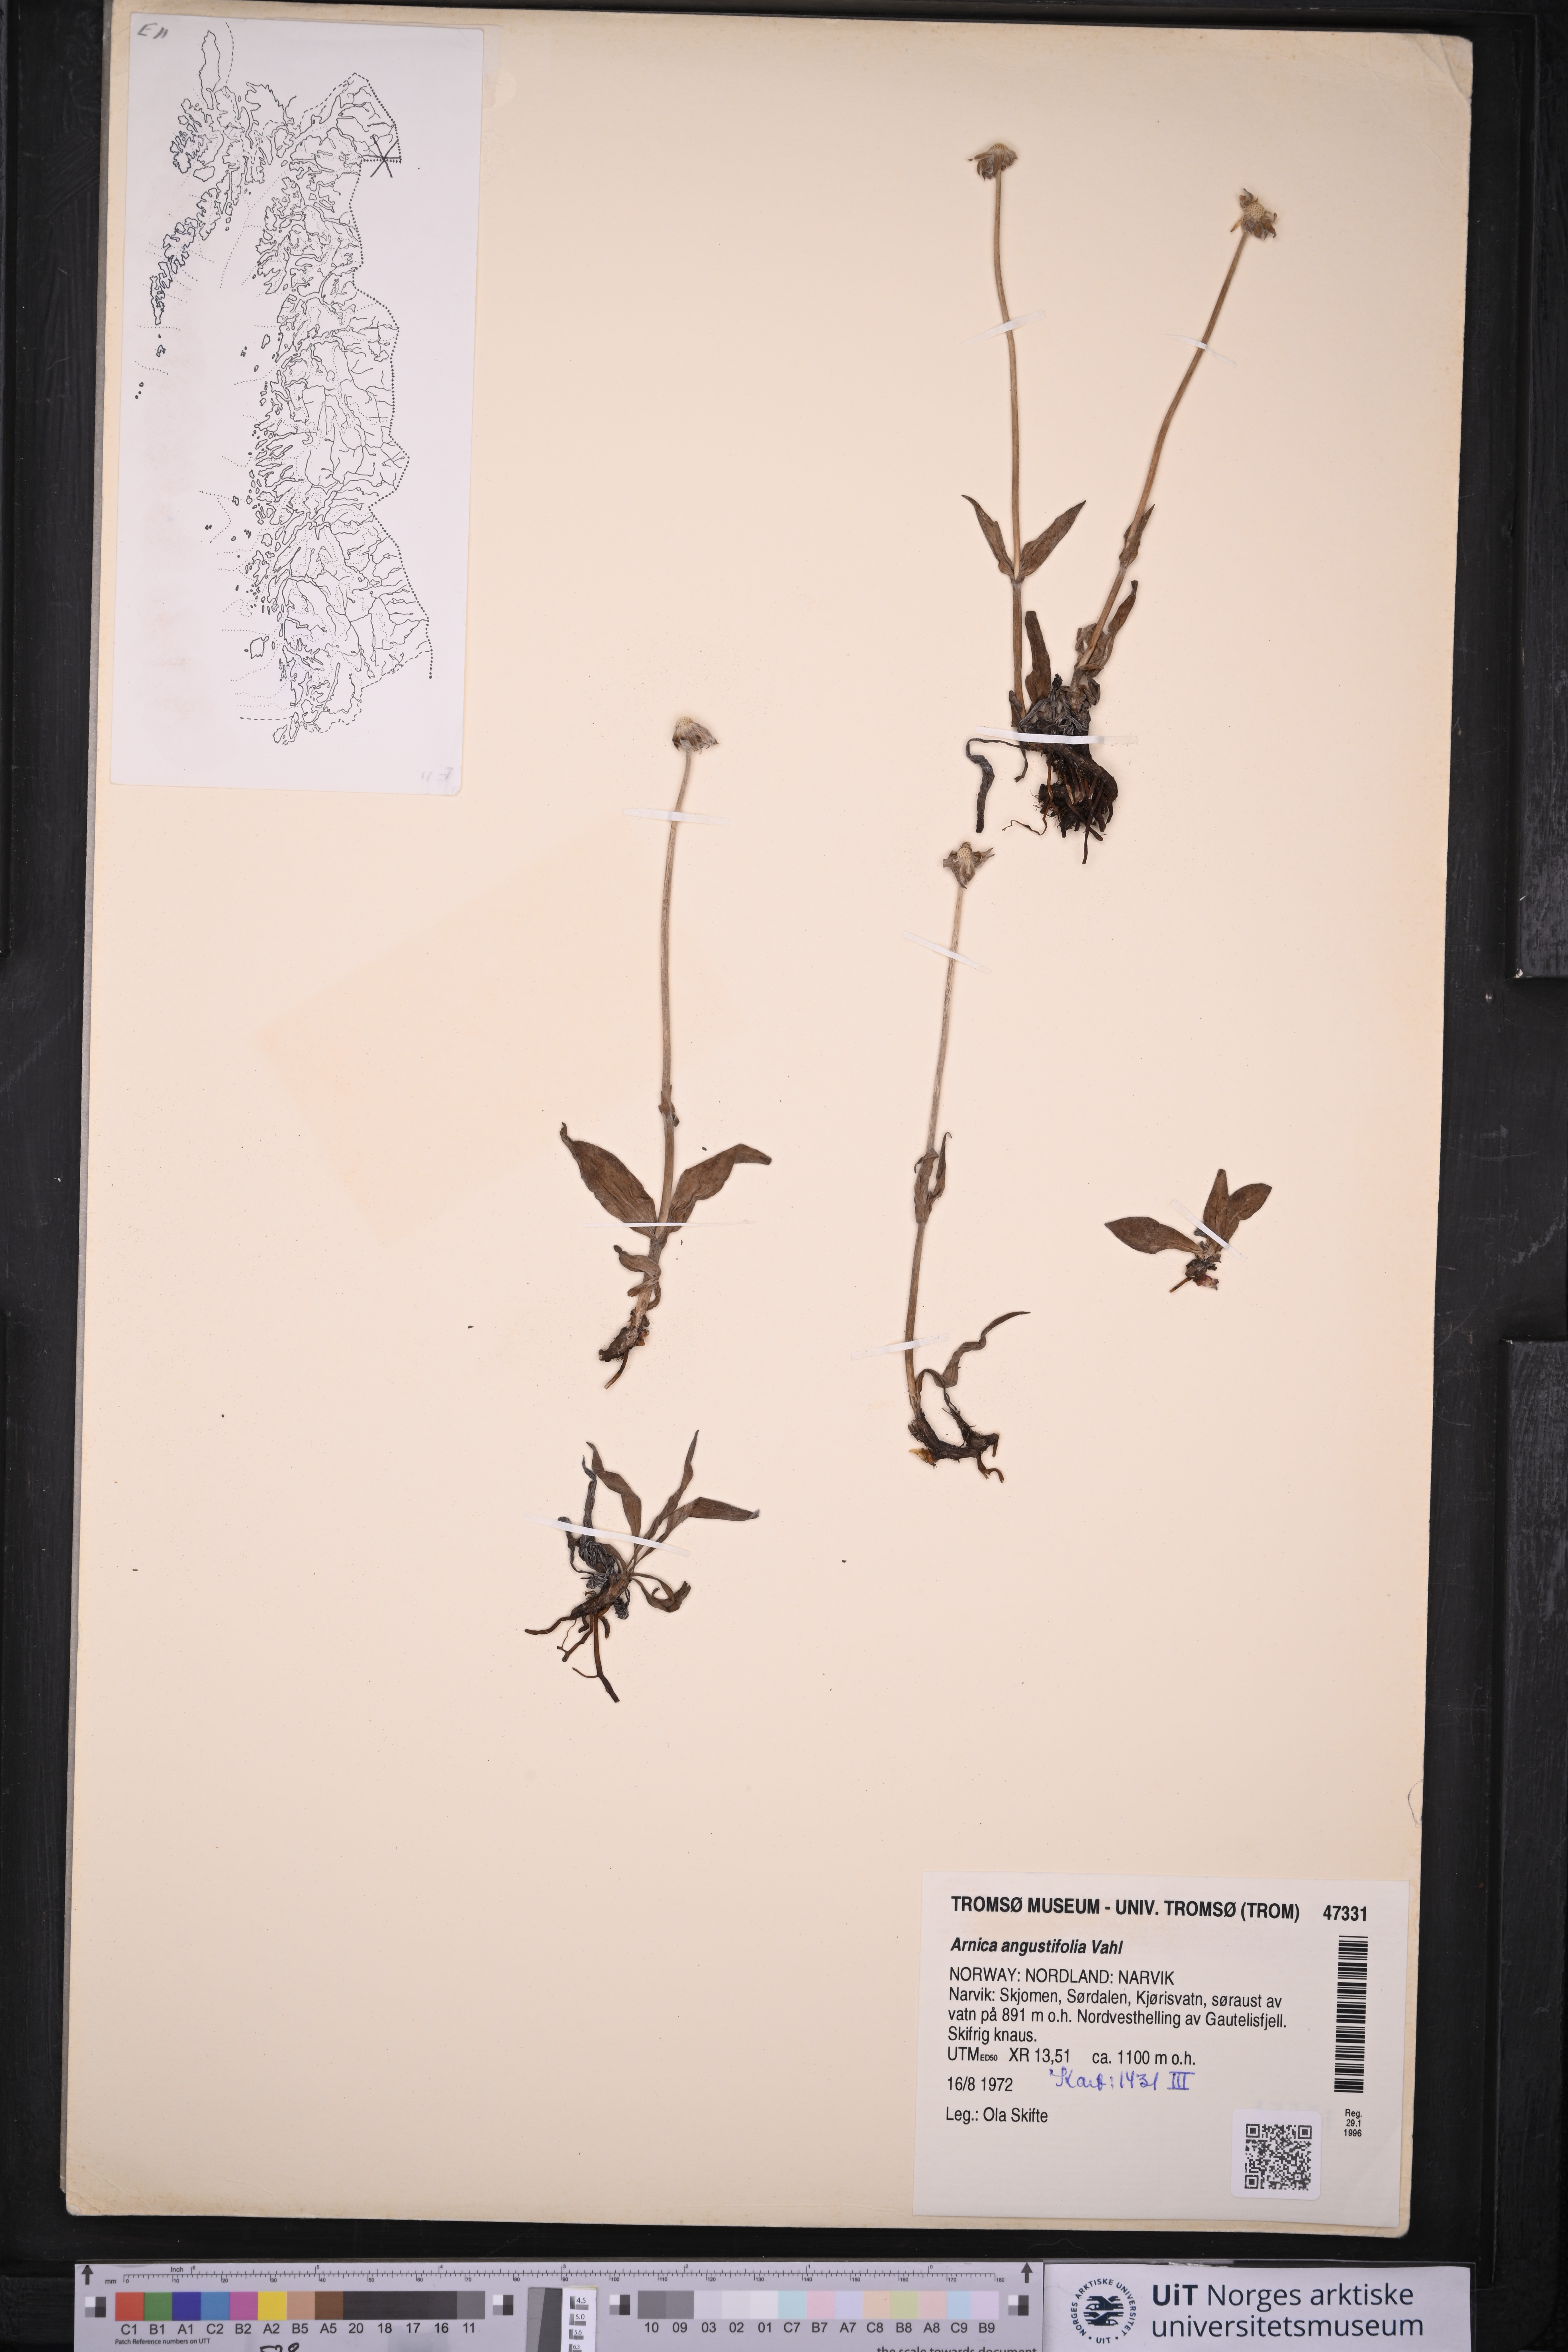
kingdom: Plantae
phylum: Tracheophyta
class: Magnoliopsida
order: Asterales
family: Asteraceae
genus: Arnica
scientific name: Arnica angustifolia
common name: Arctic arnica
